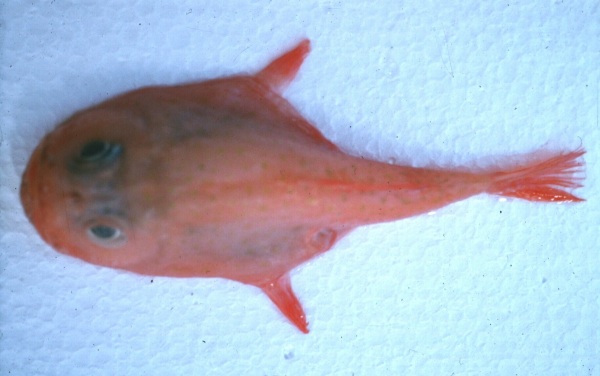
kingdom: Animalia
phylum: Chordata
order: Lophiiformes
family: Chaunacidae
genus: Chaunax
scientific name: Chaunax pictus
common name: Pink frogmouth
